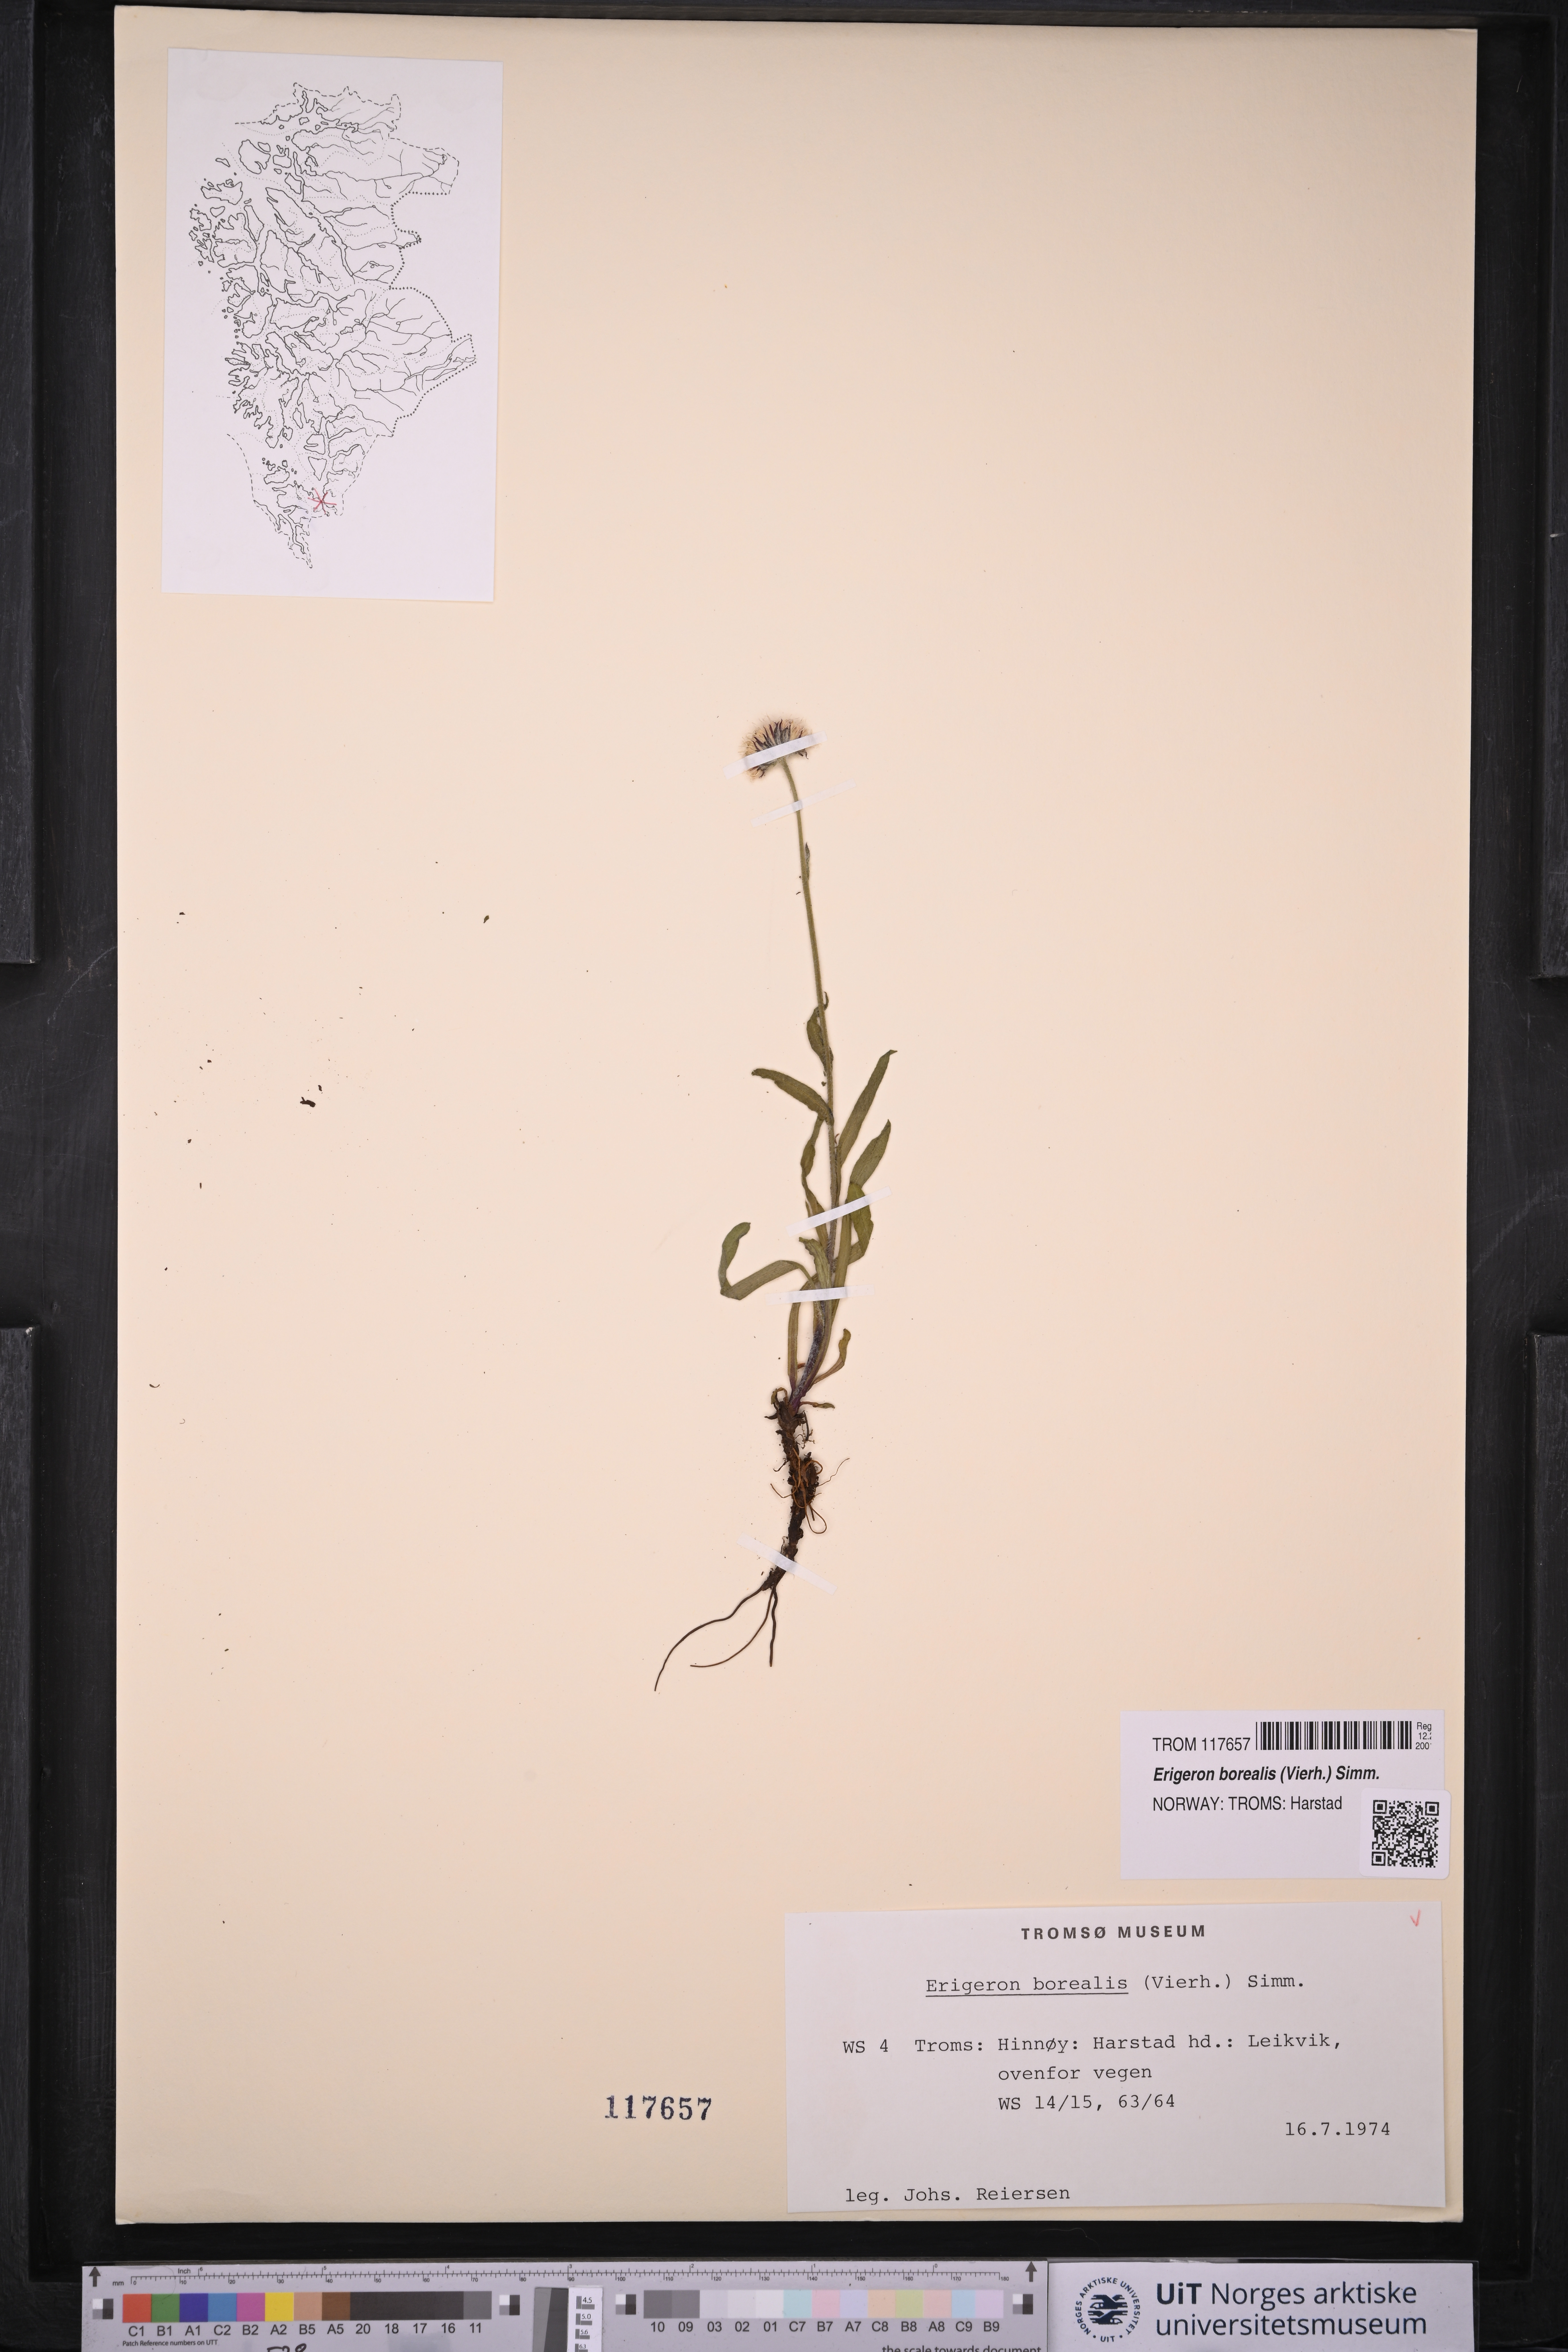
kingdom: Plantae
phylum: Tracheophyta
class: Magnoliopsida
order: Asterales
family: Asteraceae
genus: Erigeron
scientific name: Erigeron borealis
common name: Alpine fleabane
